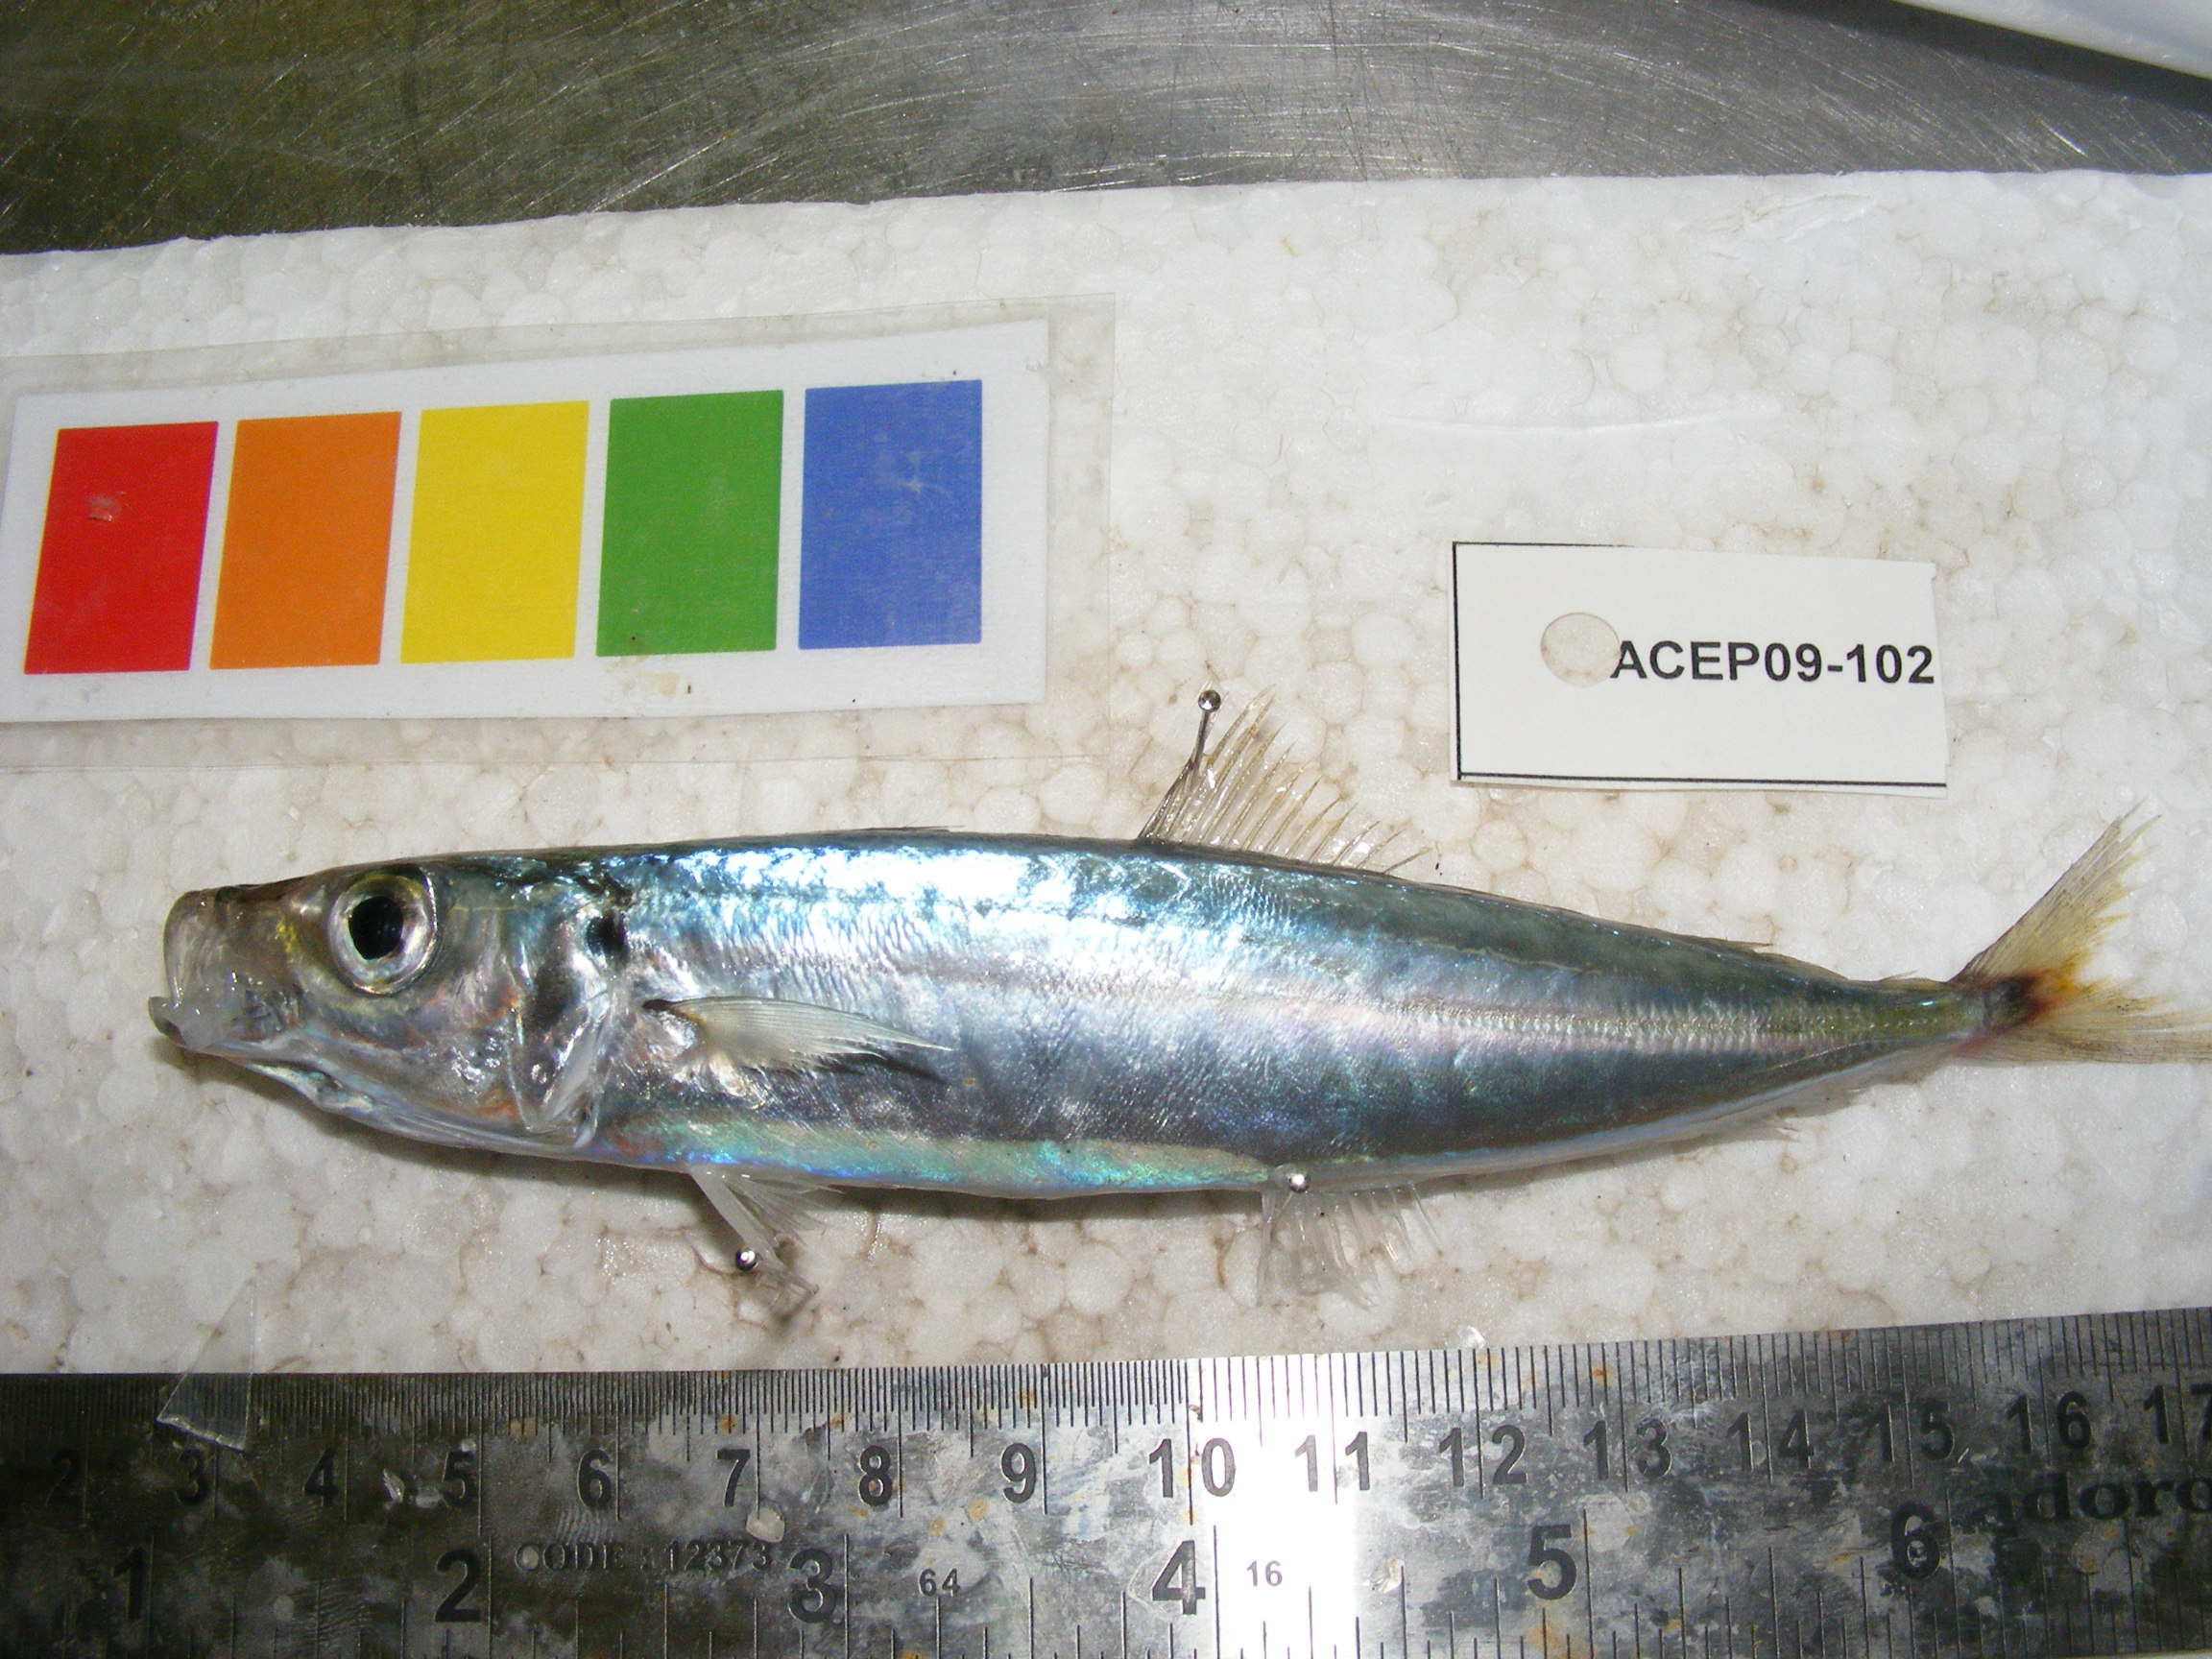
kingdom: Animalia
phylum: Chordata
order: Perciformes
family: Carangidae
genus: Decapterus
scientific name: Decapterus
